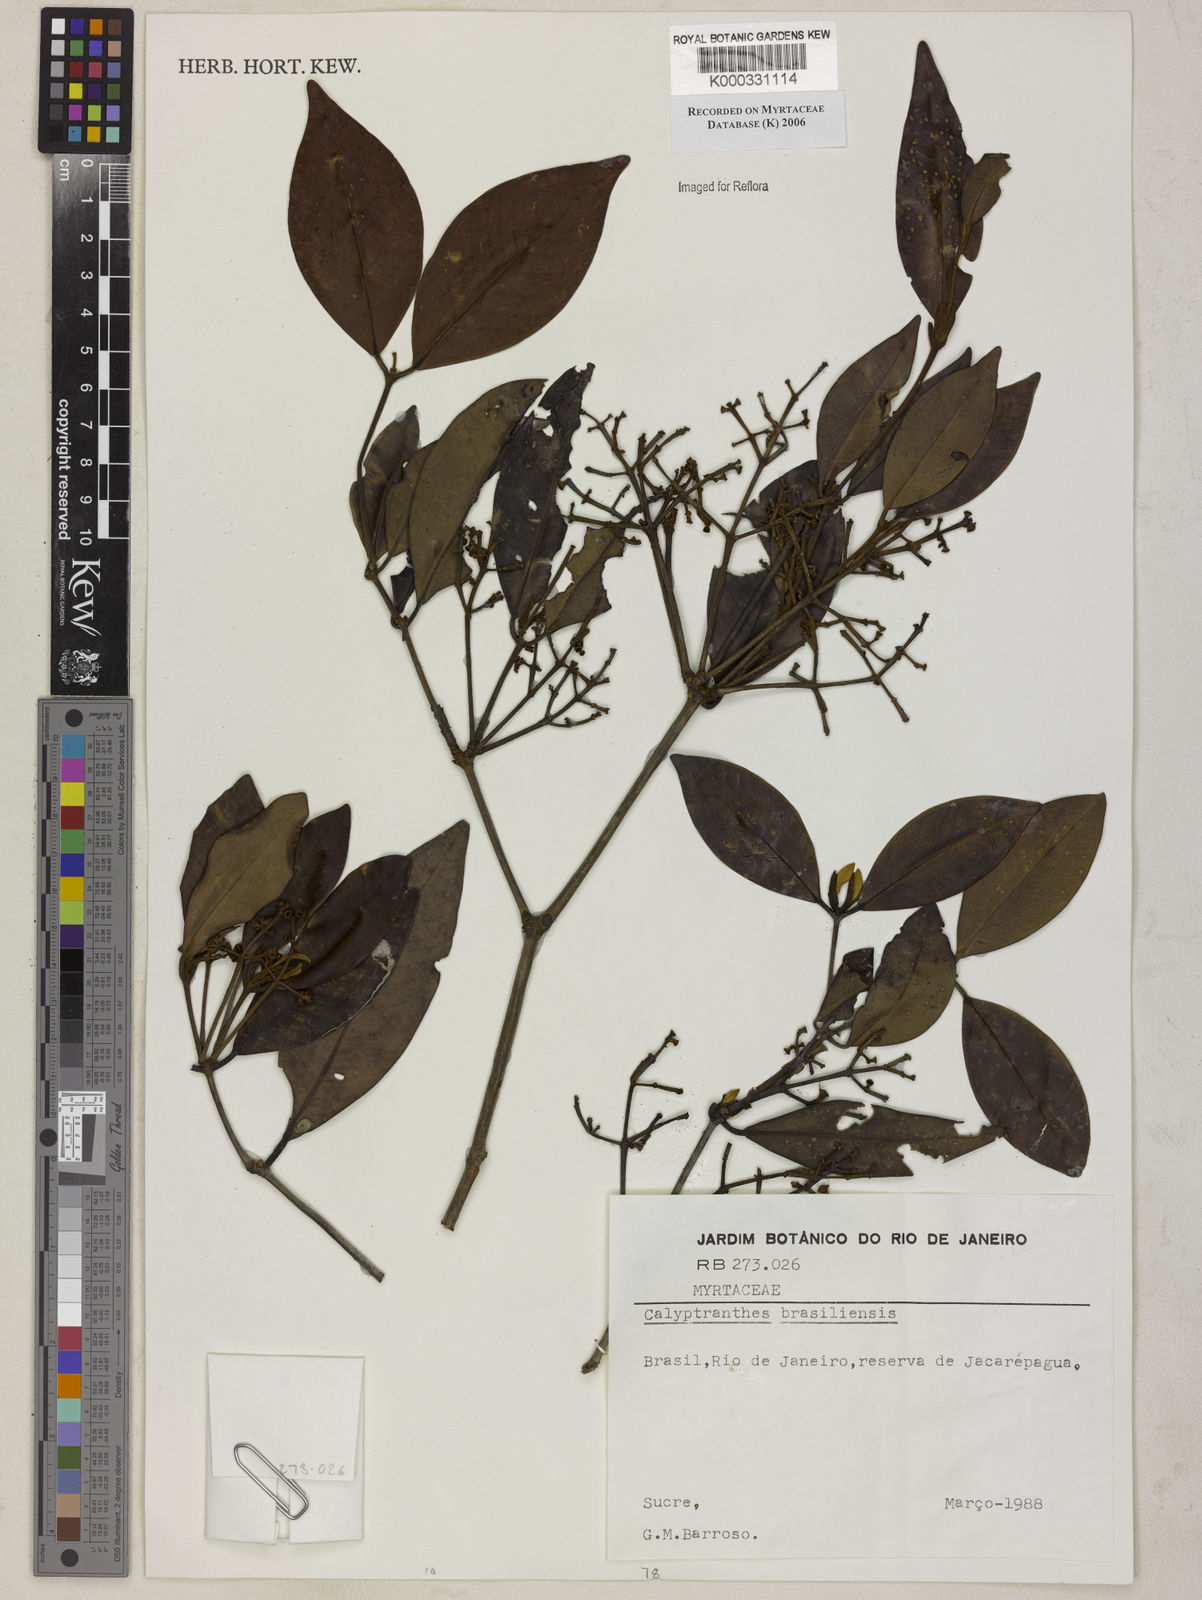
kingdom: Plantae
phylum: Tracheophyta
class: Magnoliopsida
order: Myrtales
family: Myrtaceae
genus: Myrcia
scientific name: Myrcia neobrasiliensis
